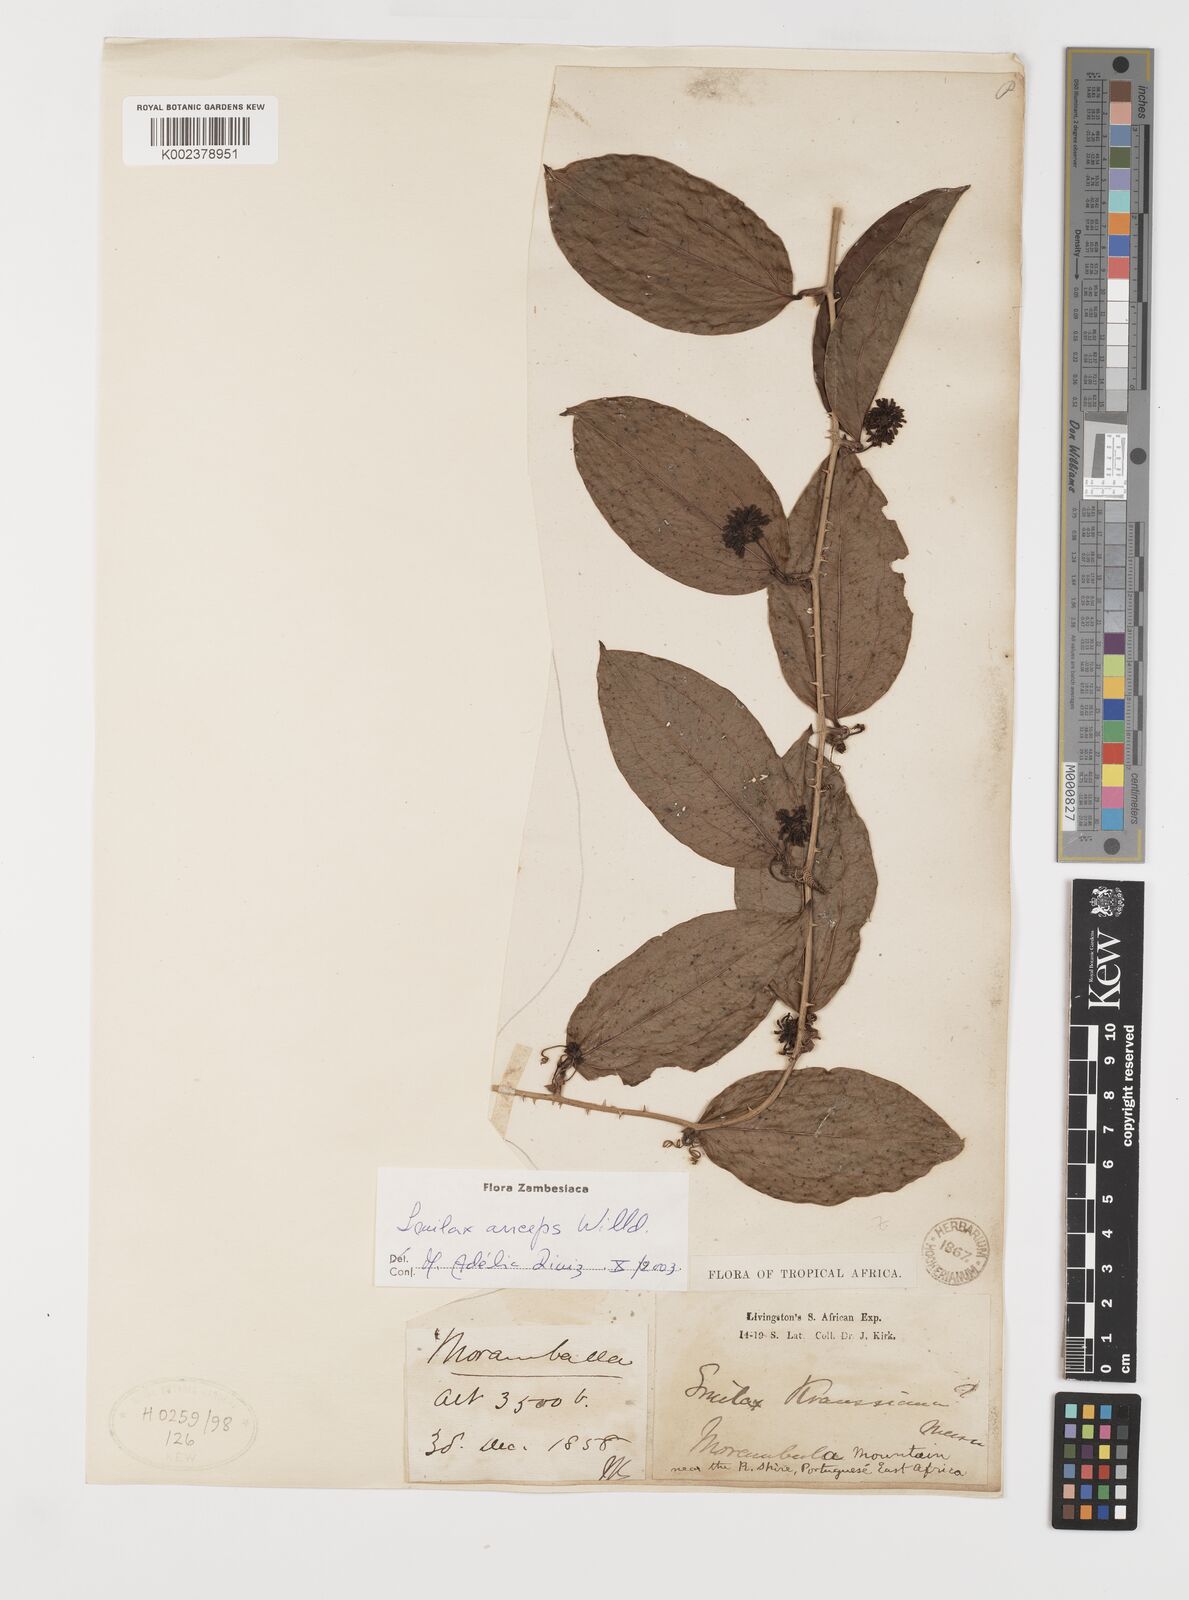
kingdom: Plantae
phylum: Tracheophyta
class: Liliopsida
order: Liliales
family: Smilacaceae
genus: Smilax
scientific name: Smilax anceps
